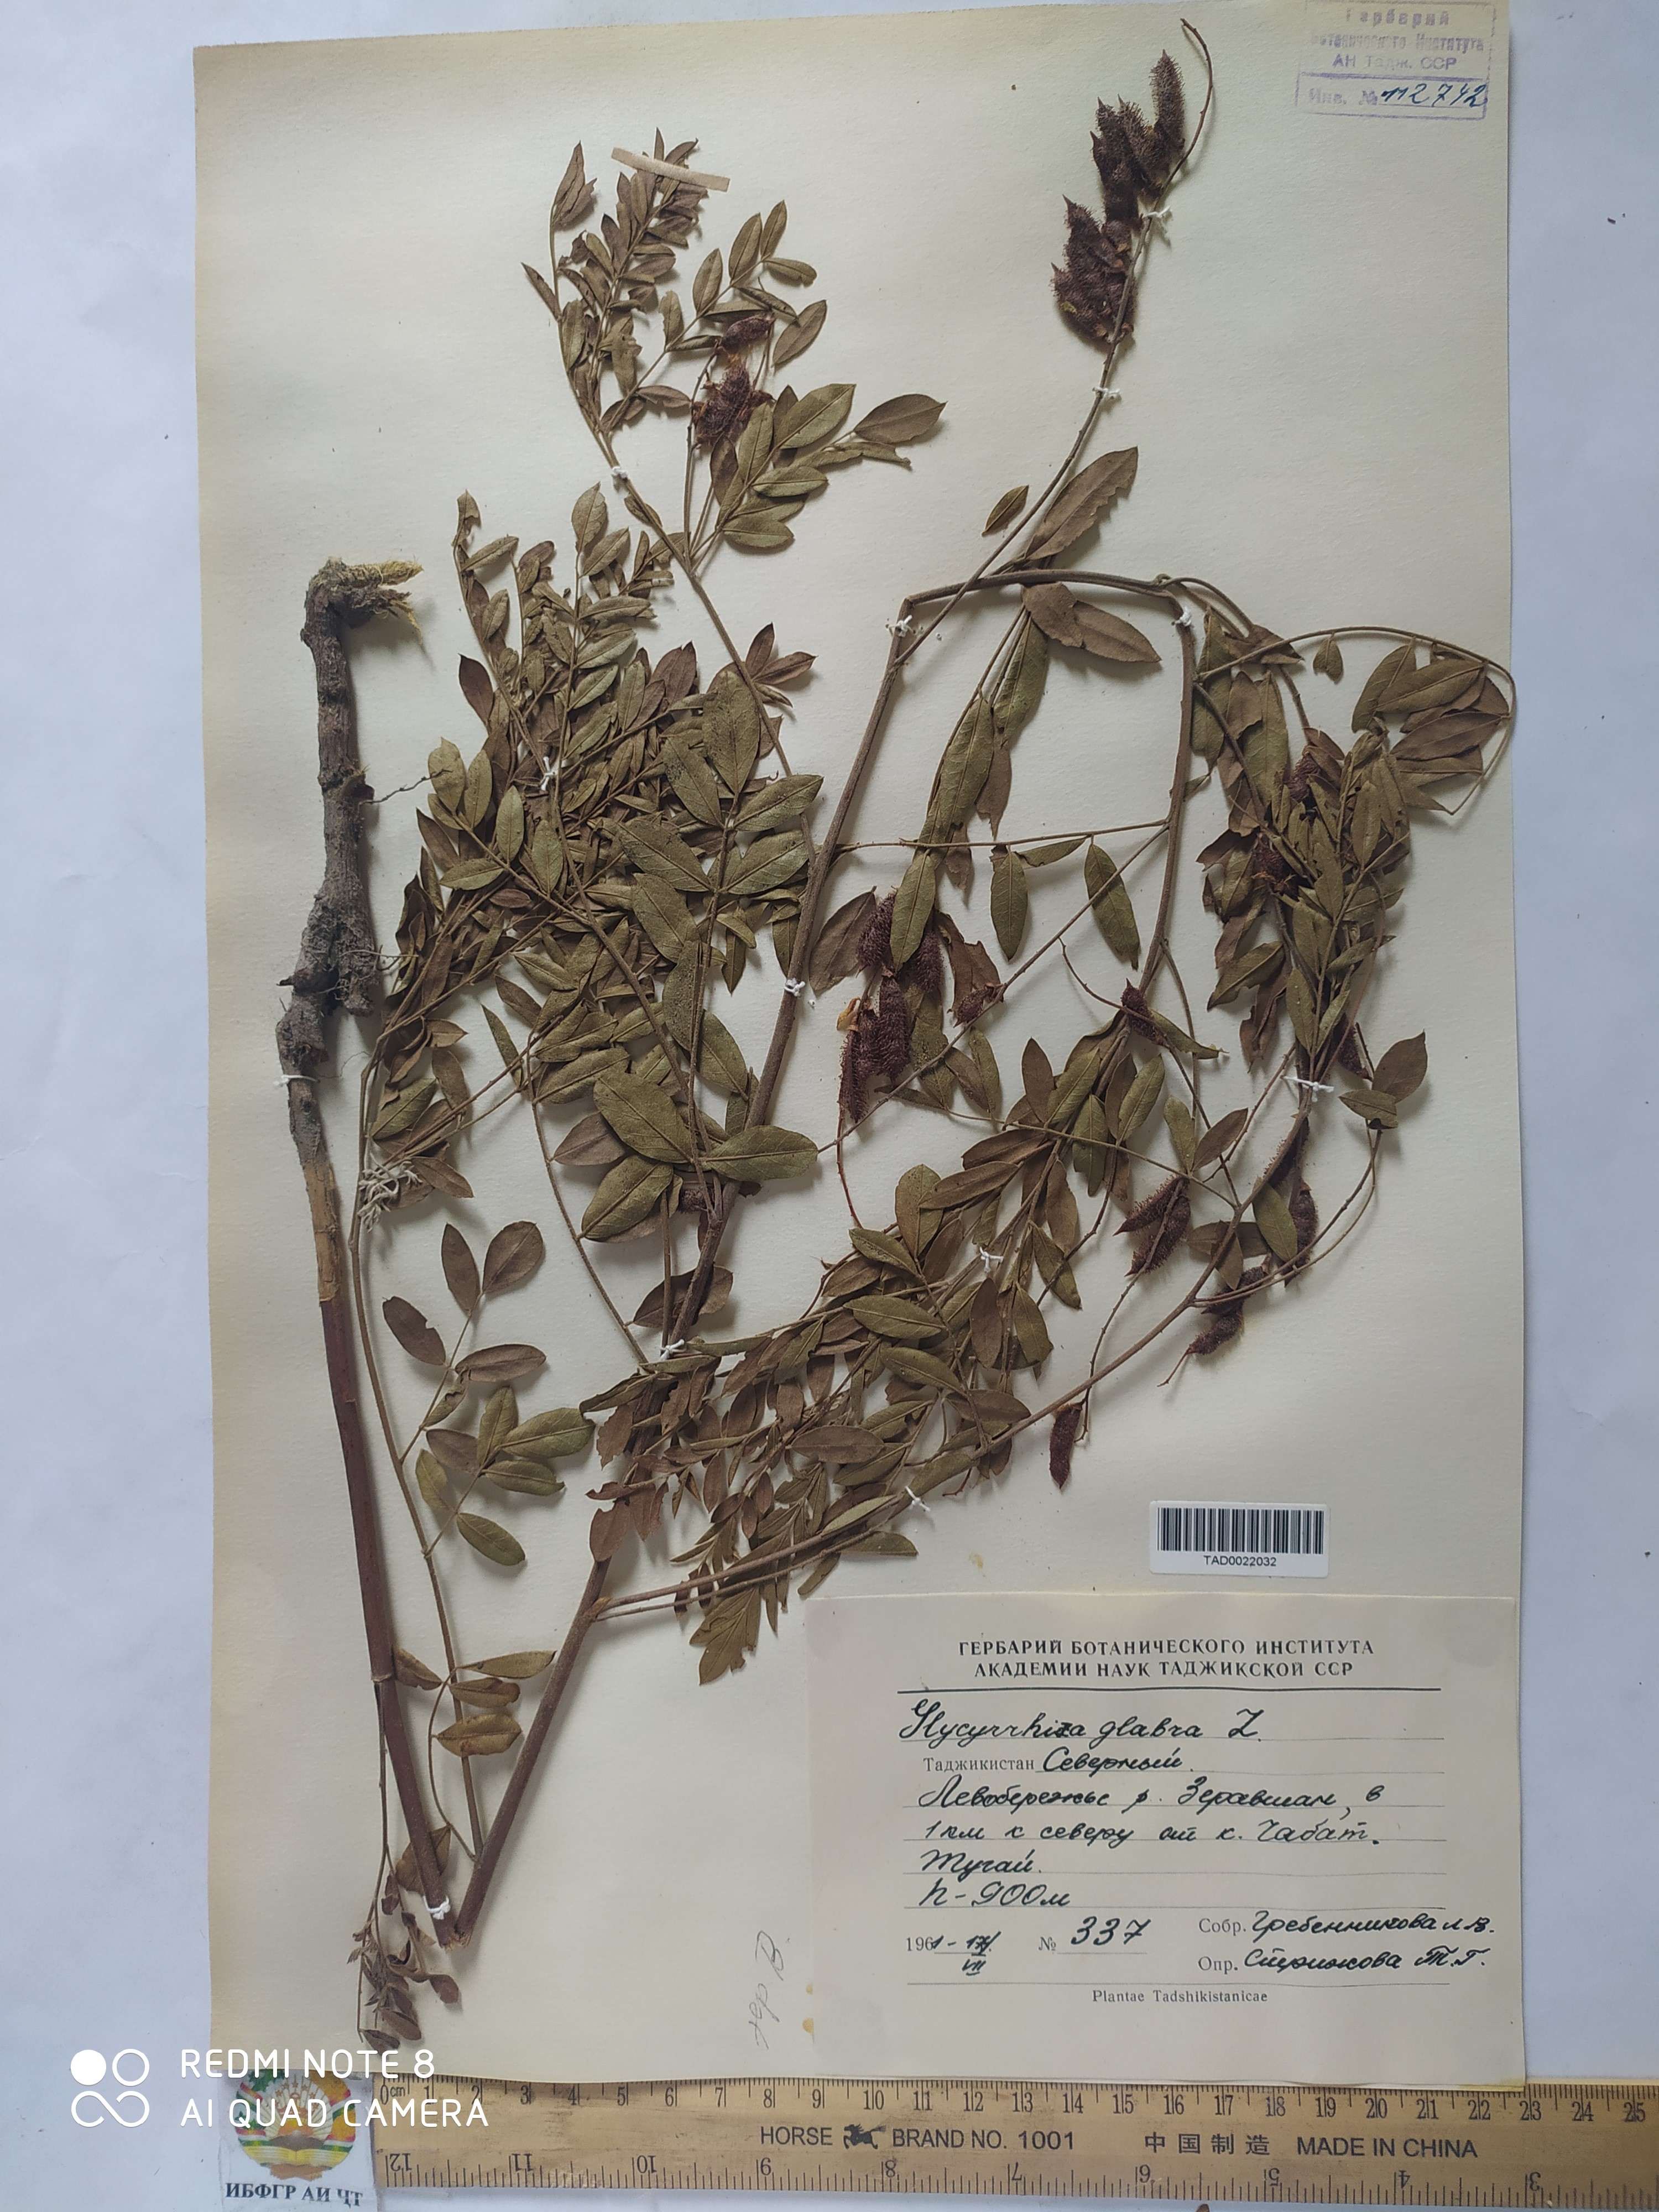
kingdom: Plantae
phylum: Tracheophyta
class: Magnoliopsida
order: Fabales
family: Fabaceae
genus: Glycyrrhiza
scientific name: Glycyrrhiza glabra
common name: Liquorice
